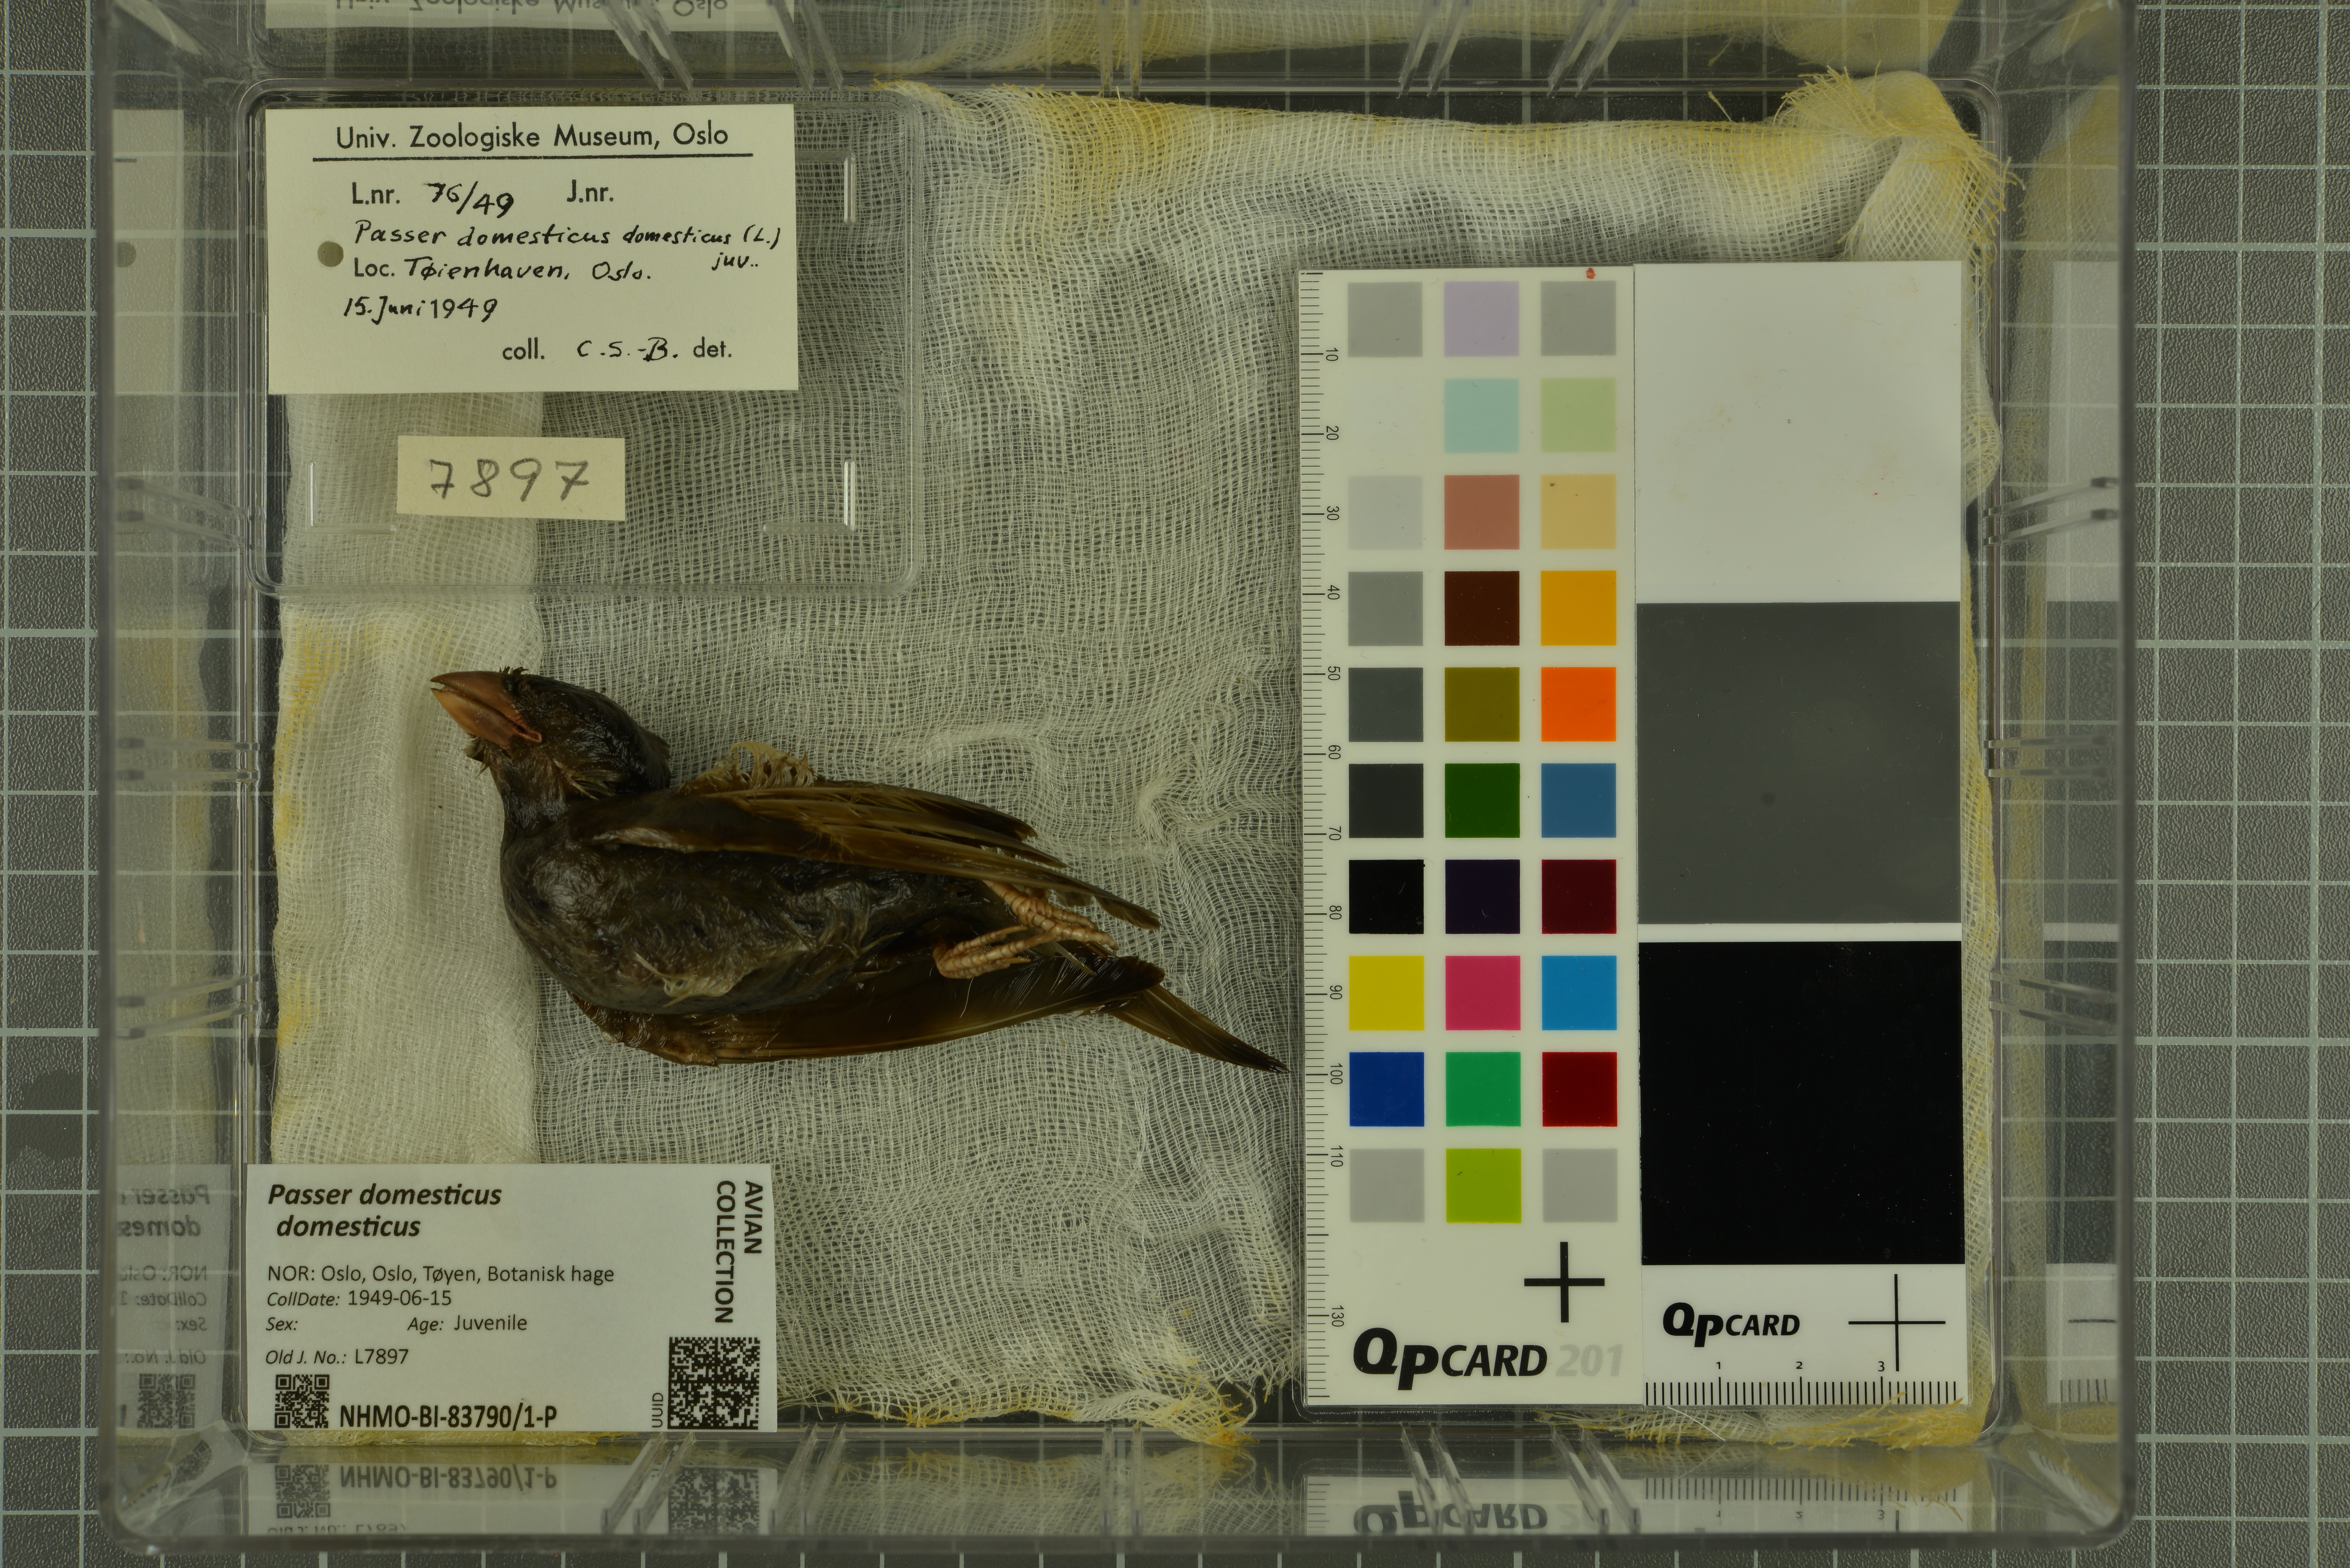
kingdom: Animalia
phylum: Chordata
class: Aves
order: Passeriformes
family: Passeridae
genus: Passer
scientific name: Passer domesticus
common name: House sparrow
